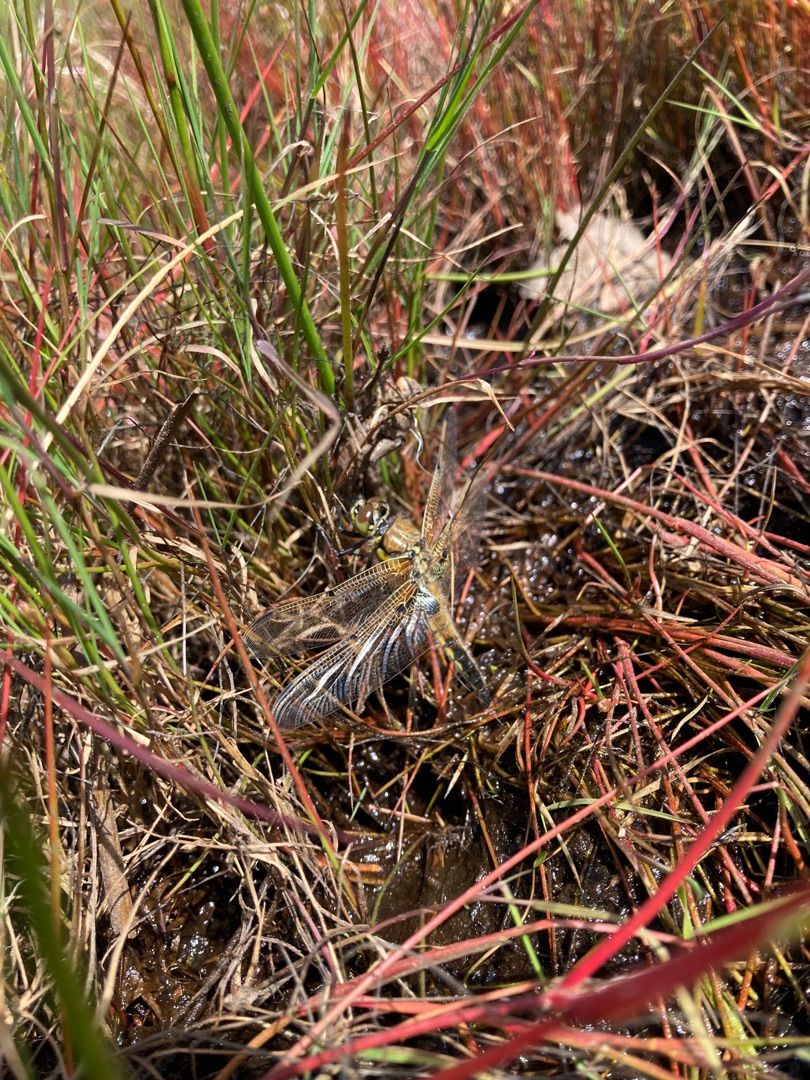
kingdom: Animalia
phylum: Arthropoda
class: Insecta
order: Odonata
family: Libellulidae
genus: Libellula
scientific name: Libellula quadrimaculata
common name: Fireplettet libel
